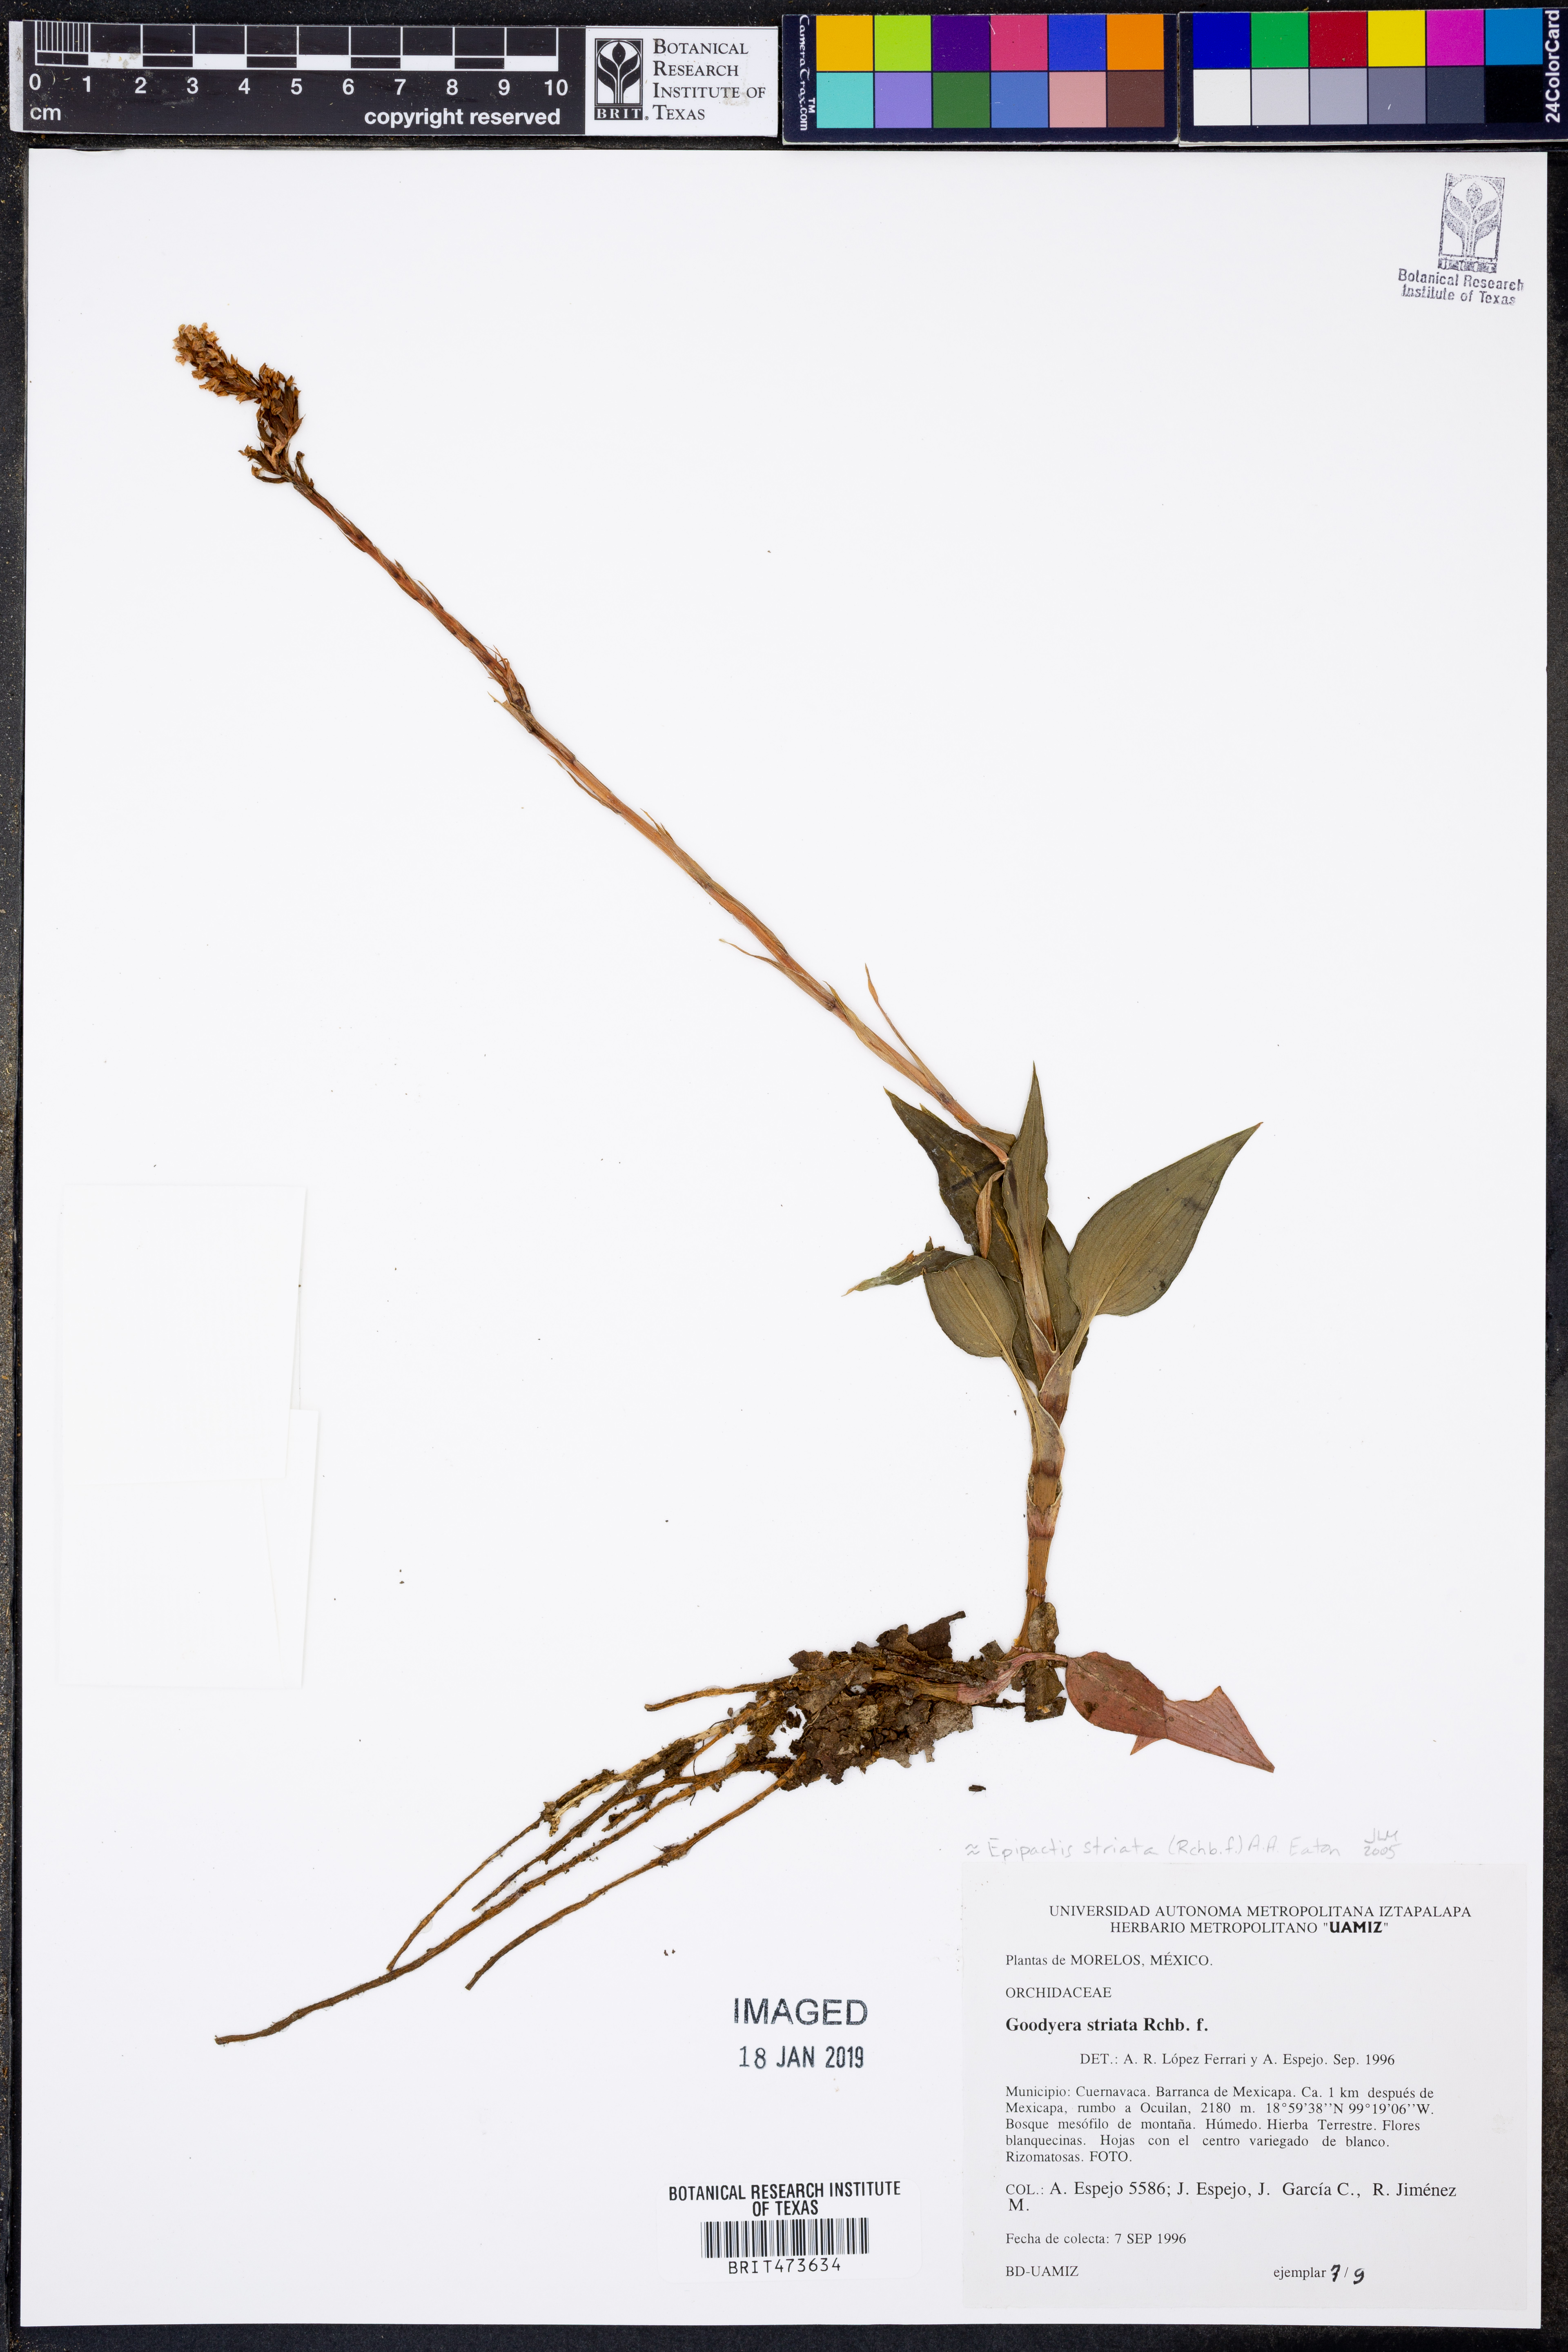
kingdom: Plantae
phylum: Tracheophyta
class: Liliopsida
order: Asparagales
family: Orchidaceae
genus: Goodyera
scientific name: Goodyera striata
